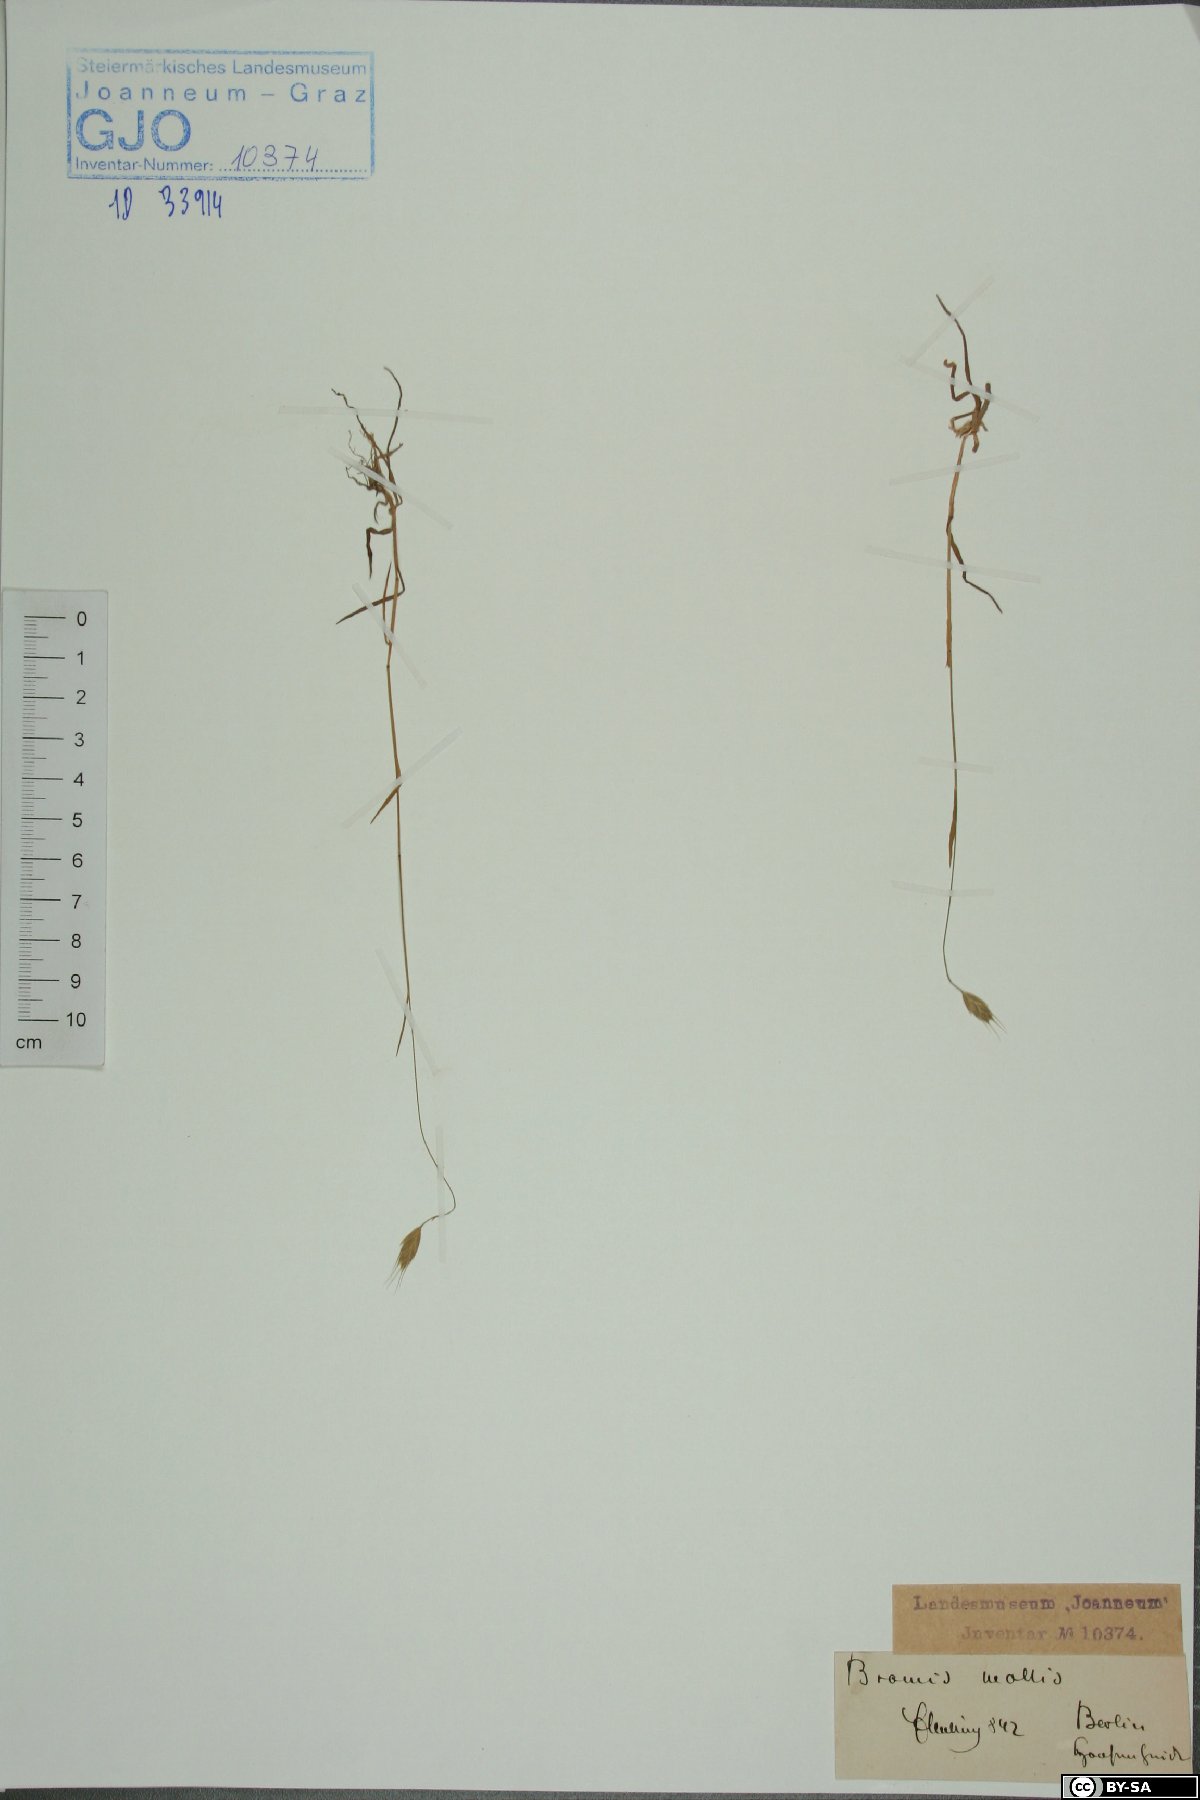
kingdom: Plantae
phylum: Tracheophyta
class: Liliopsida
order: Poales
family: Poaceae
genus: Bromus
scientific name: Bromus hordeaceus
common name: Soft brome
